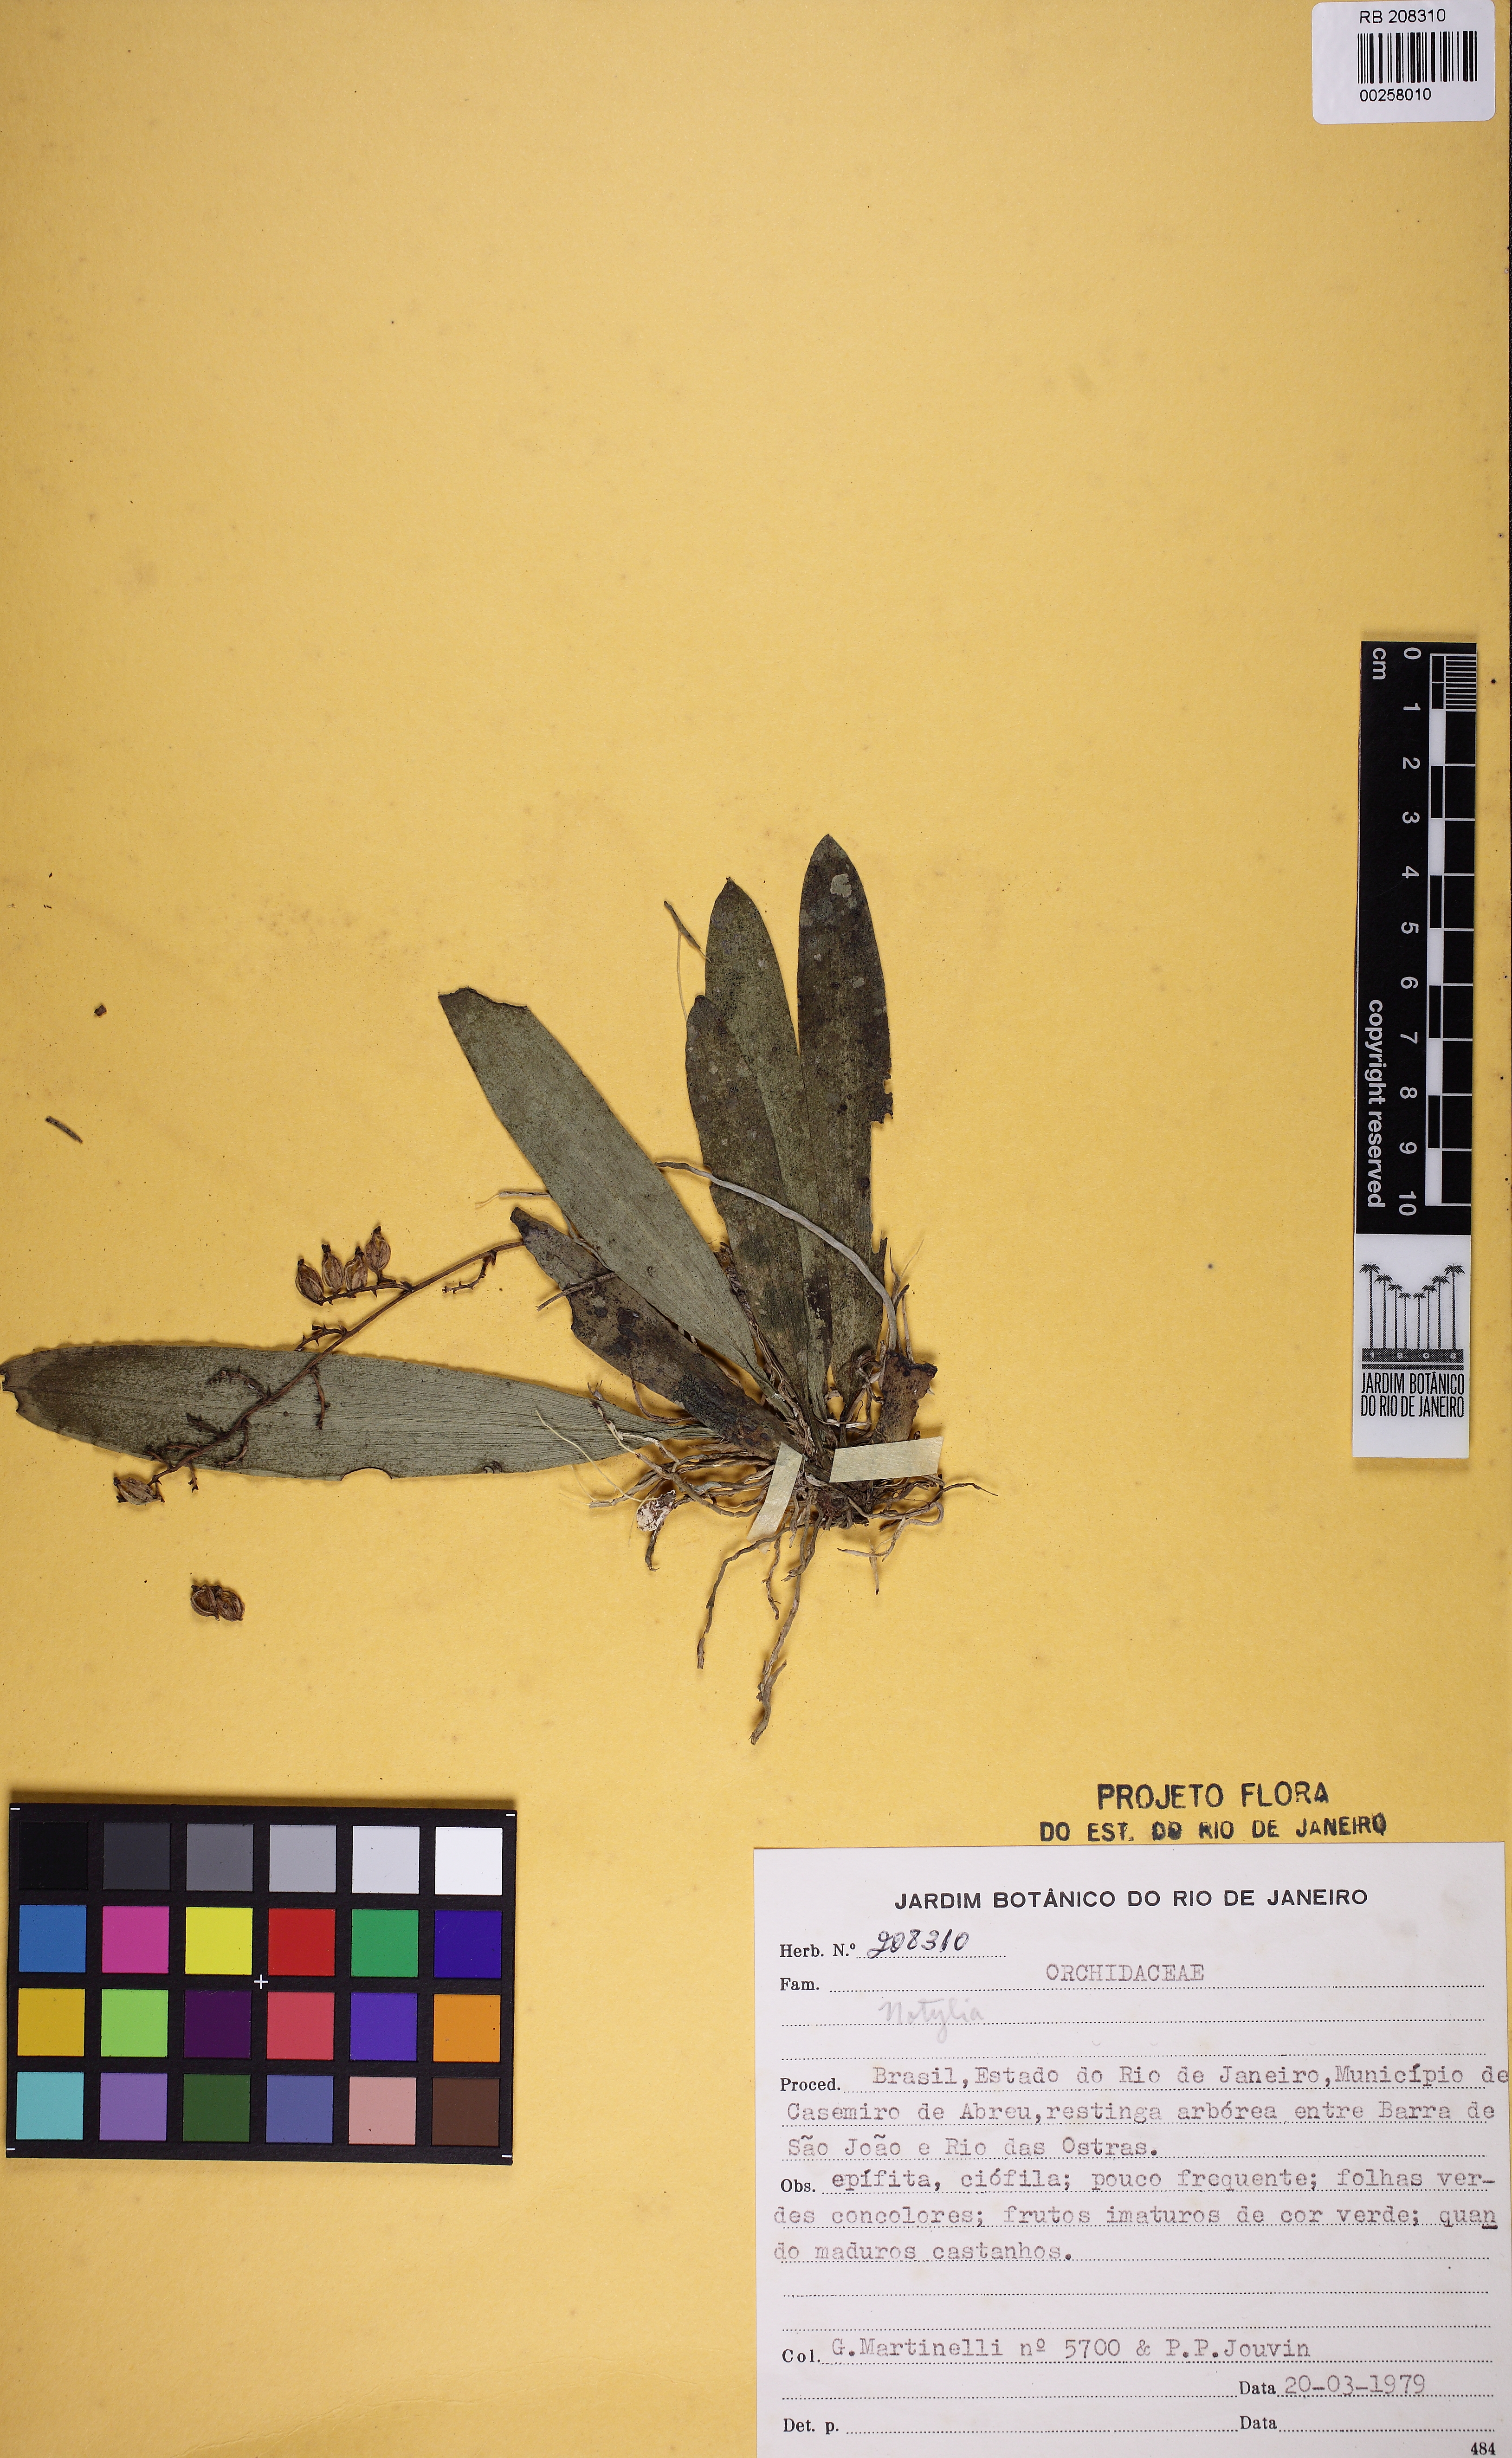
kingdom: Plantae
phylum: Tracheophyta
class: Liliopsida
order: Asparagales
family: Orchidaceae
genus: Notylia
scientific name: Notylia
